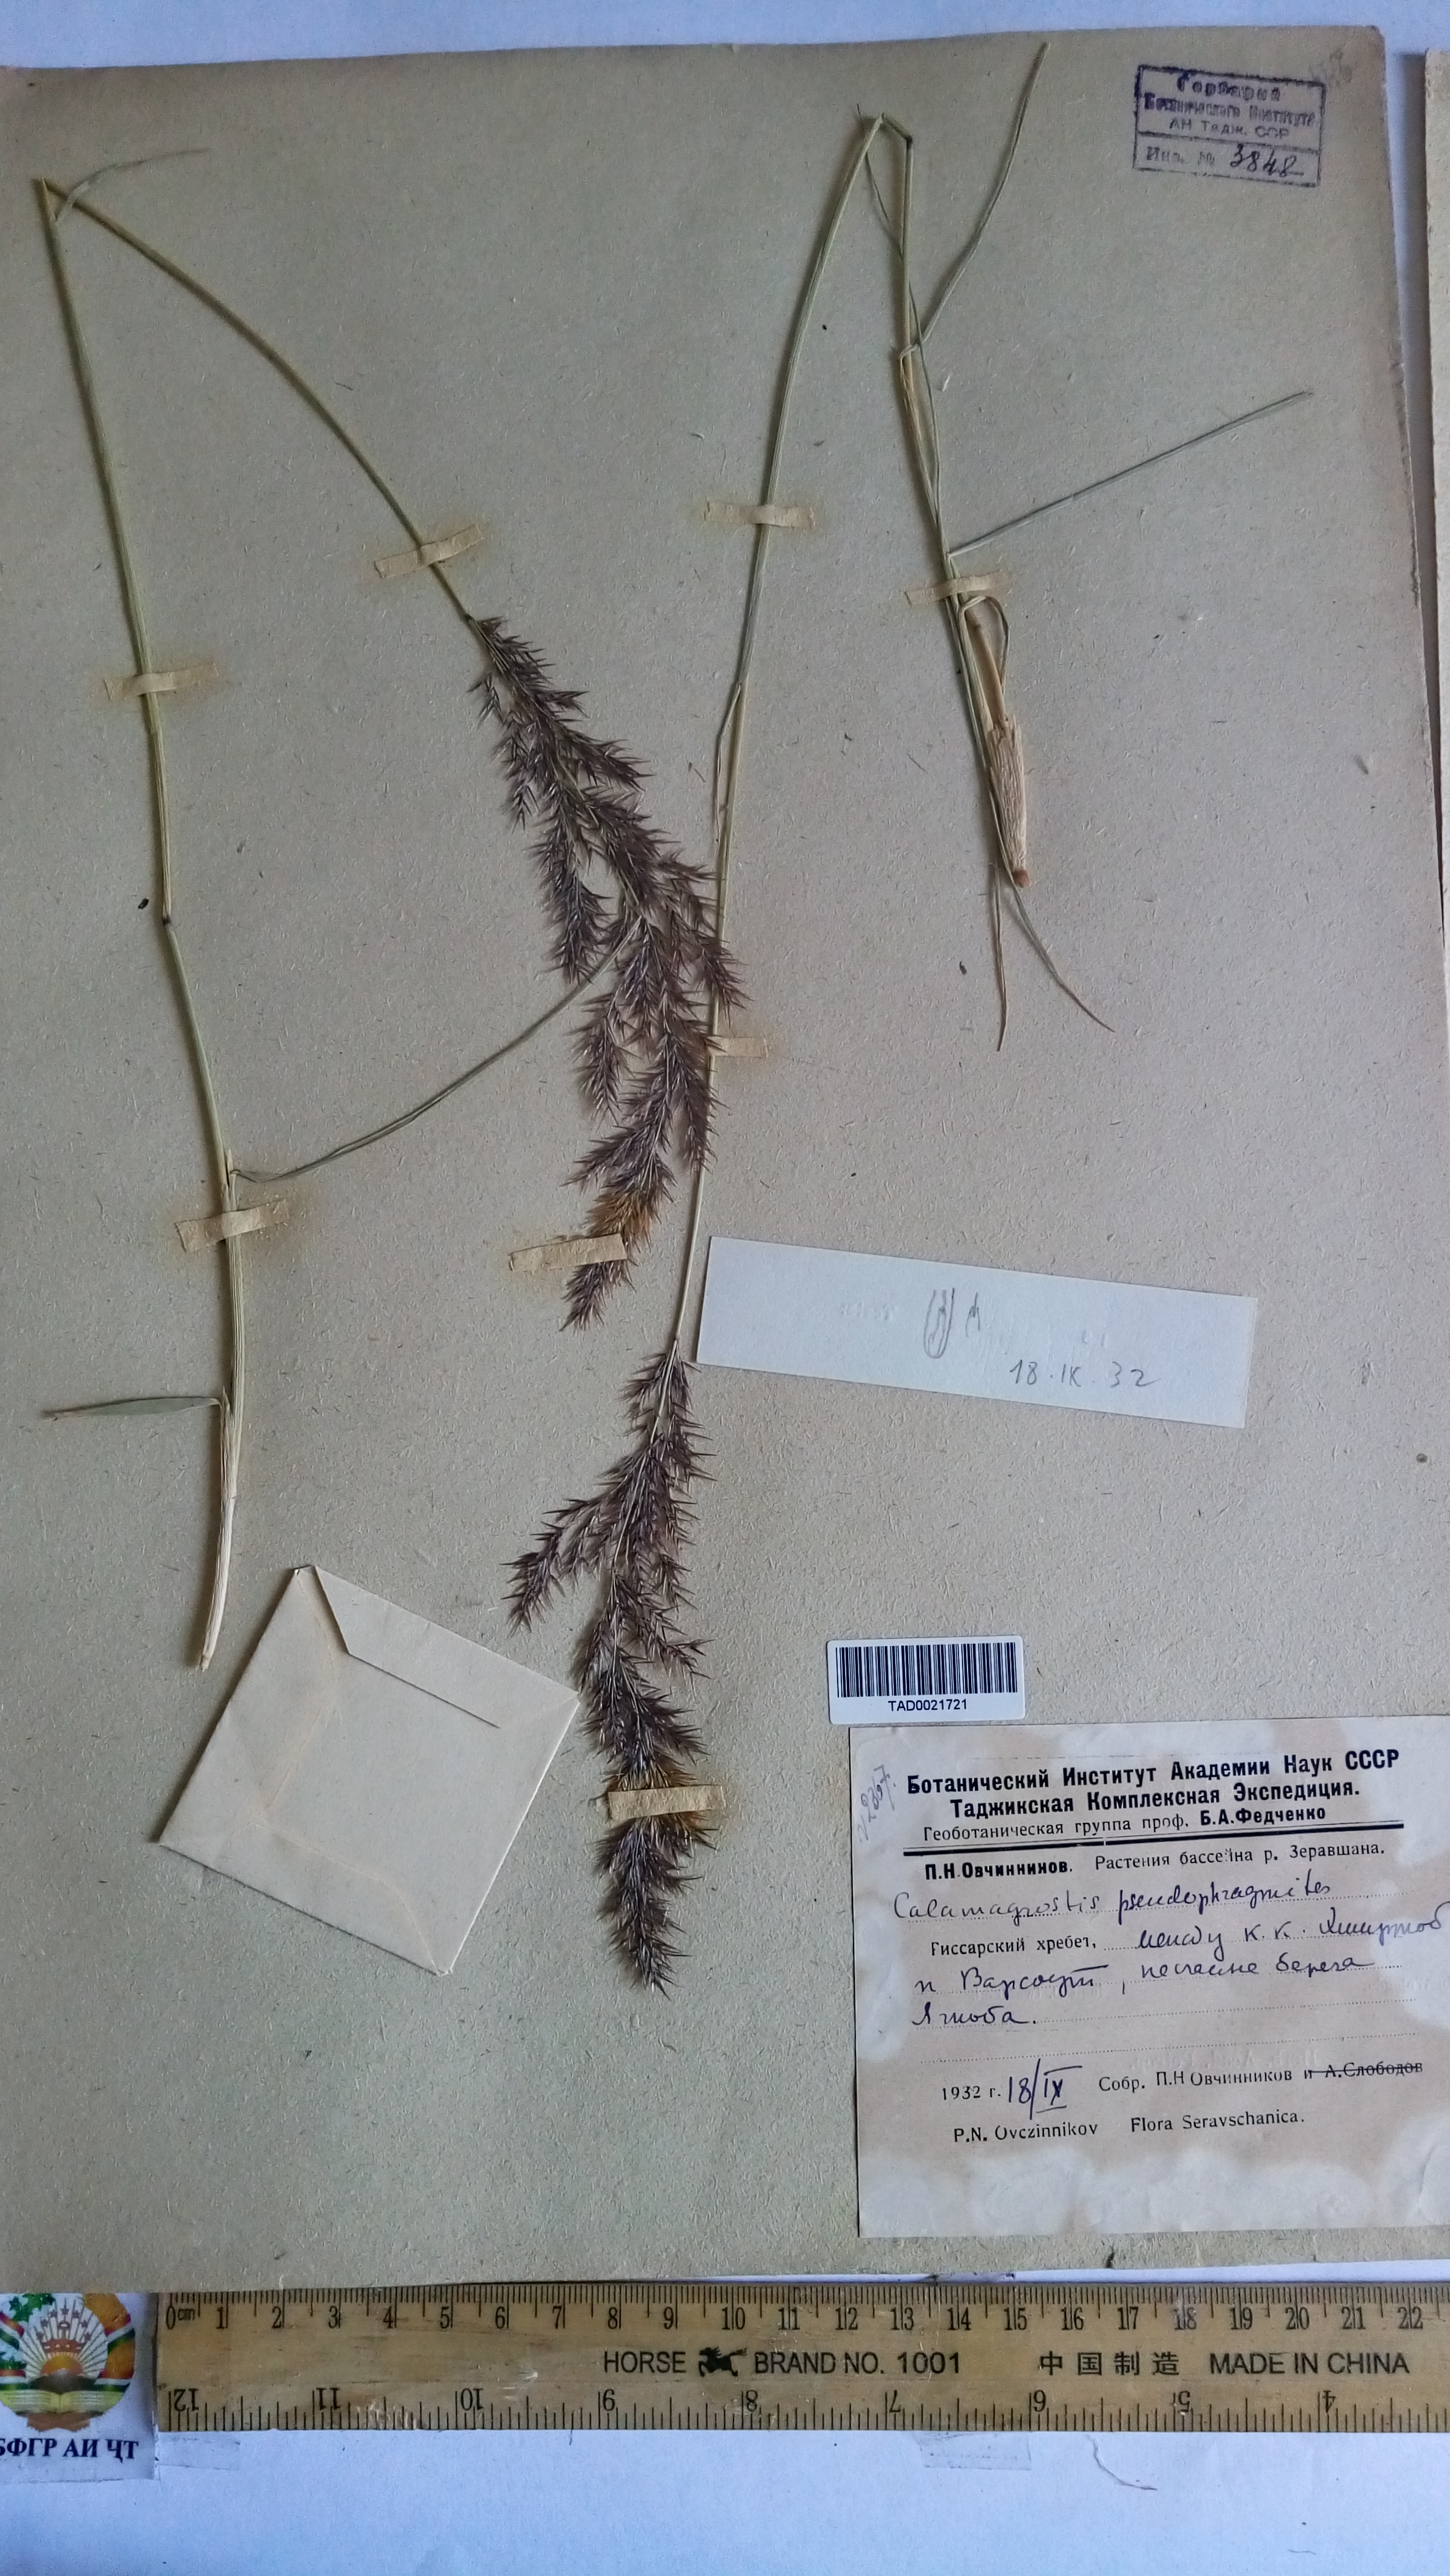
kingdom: Plantae
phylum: Tracheophyta
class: Liliopsida
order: Poales
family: Poaceae
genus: Calamagrostis
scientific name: Calamagrostis pseudophragmites
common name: Coastal small-reed
